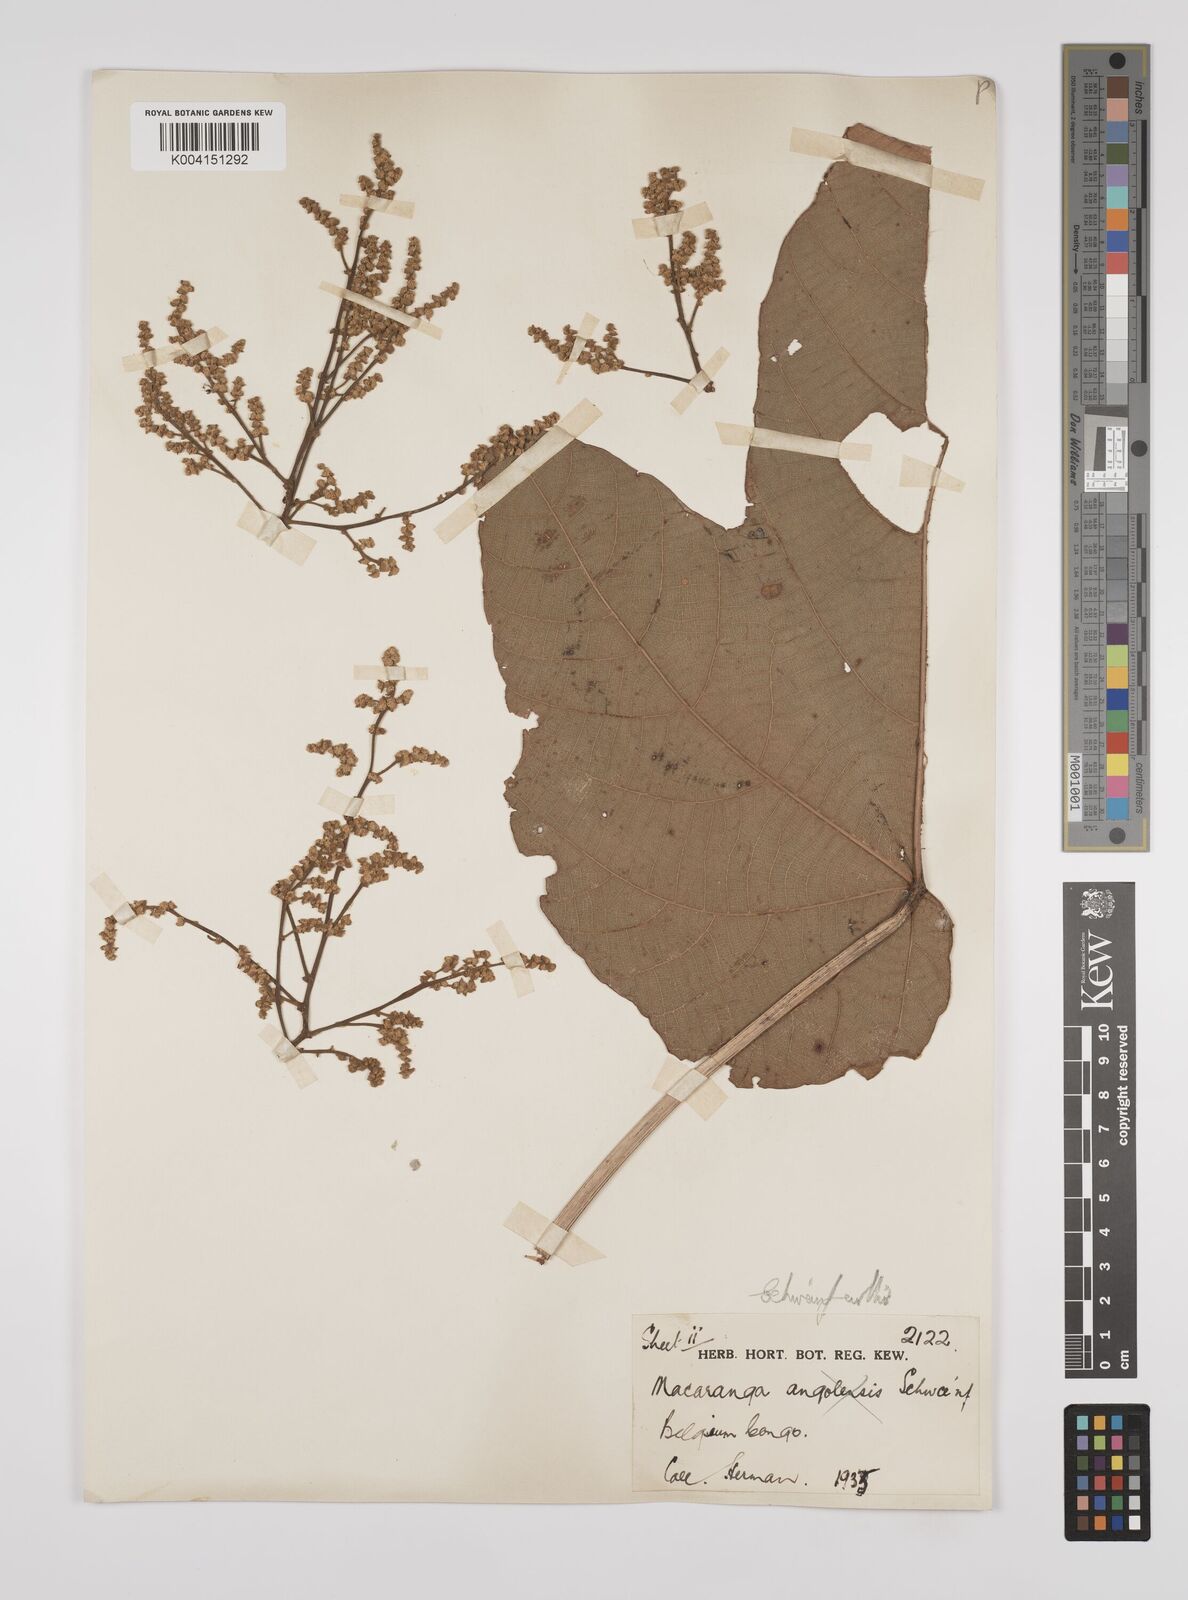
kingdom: Plantae
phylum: Tracheophyta
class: Magnoliopsida
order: Malpighiales
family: Euphorbiaceae
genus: Macaranga
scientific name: Macaranga schweinfurthii
